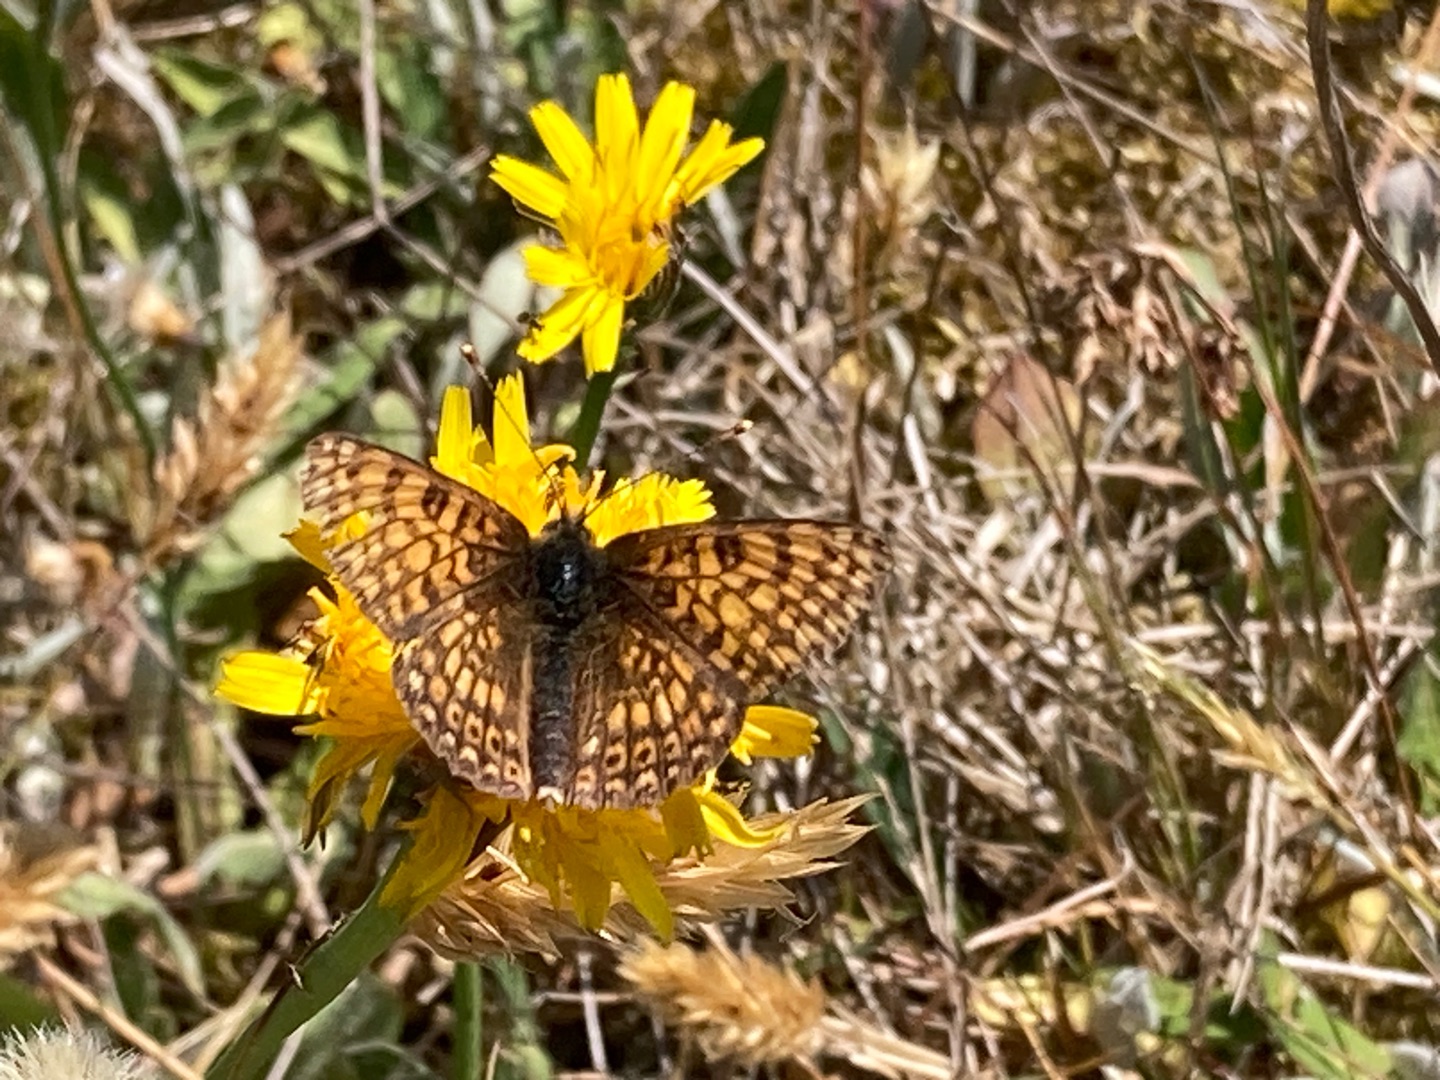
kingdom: Animalia
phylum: Arthropoda
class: Insecta
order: Lepidoptera
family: Nymphalidae
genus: Melitaea
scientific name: Melitaea cinxia
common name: Okkergul pletvinge
